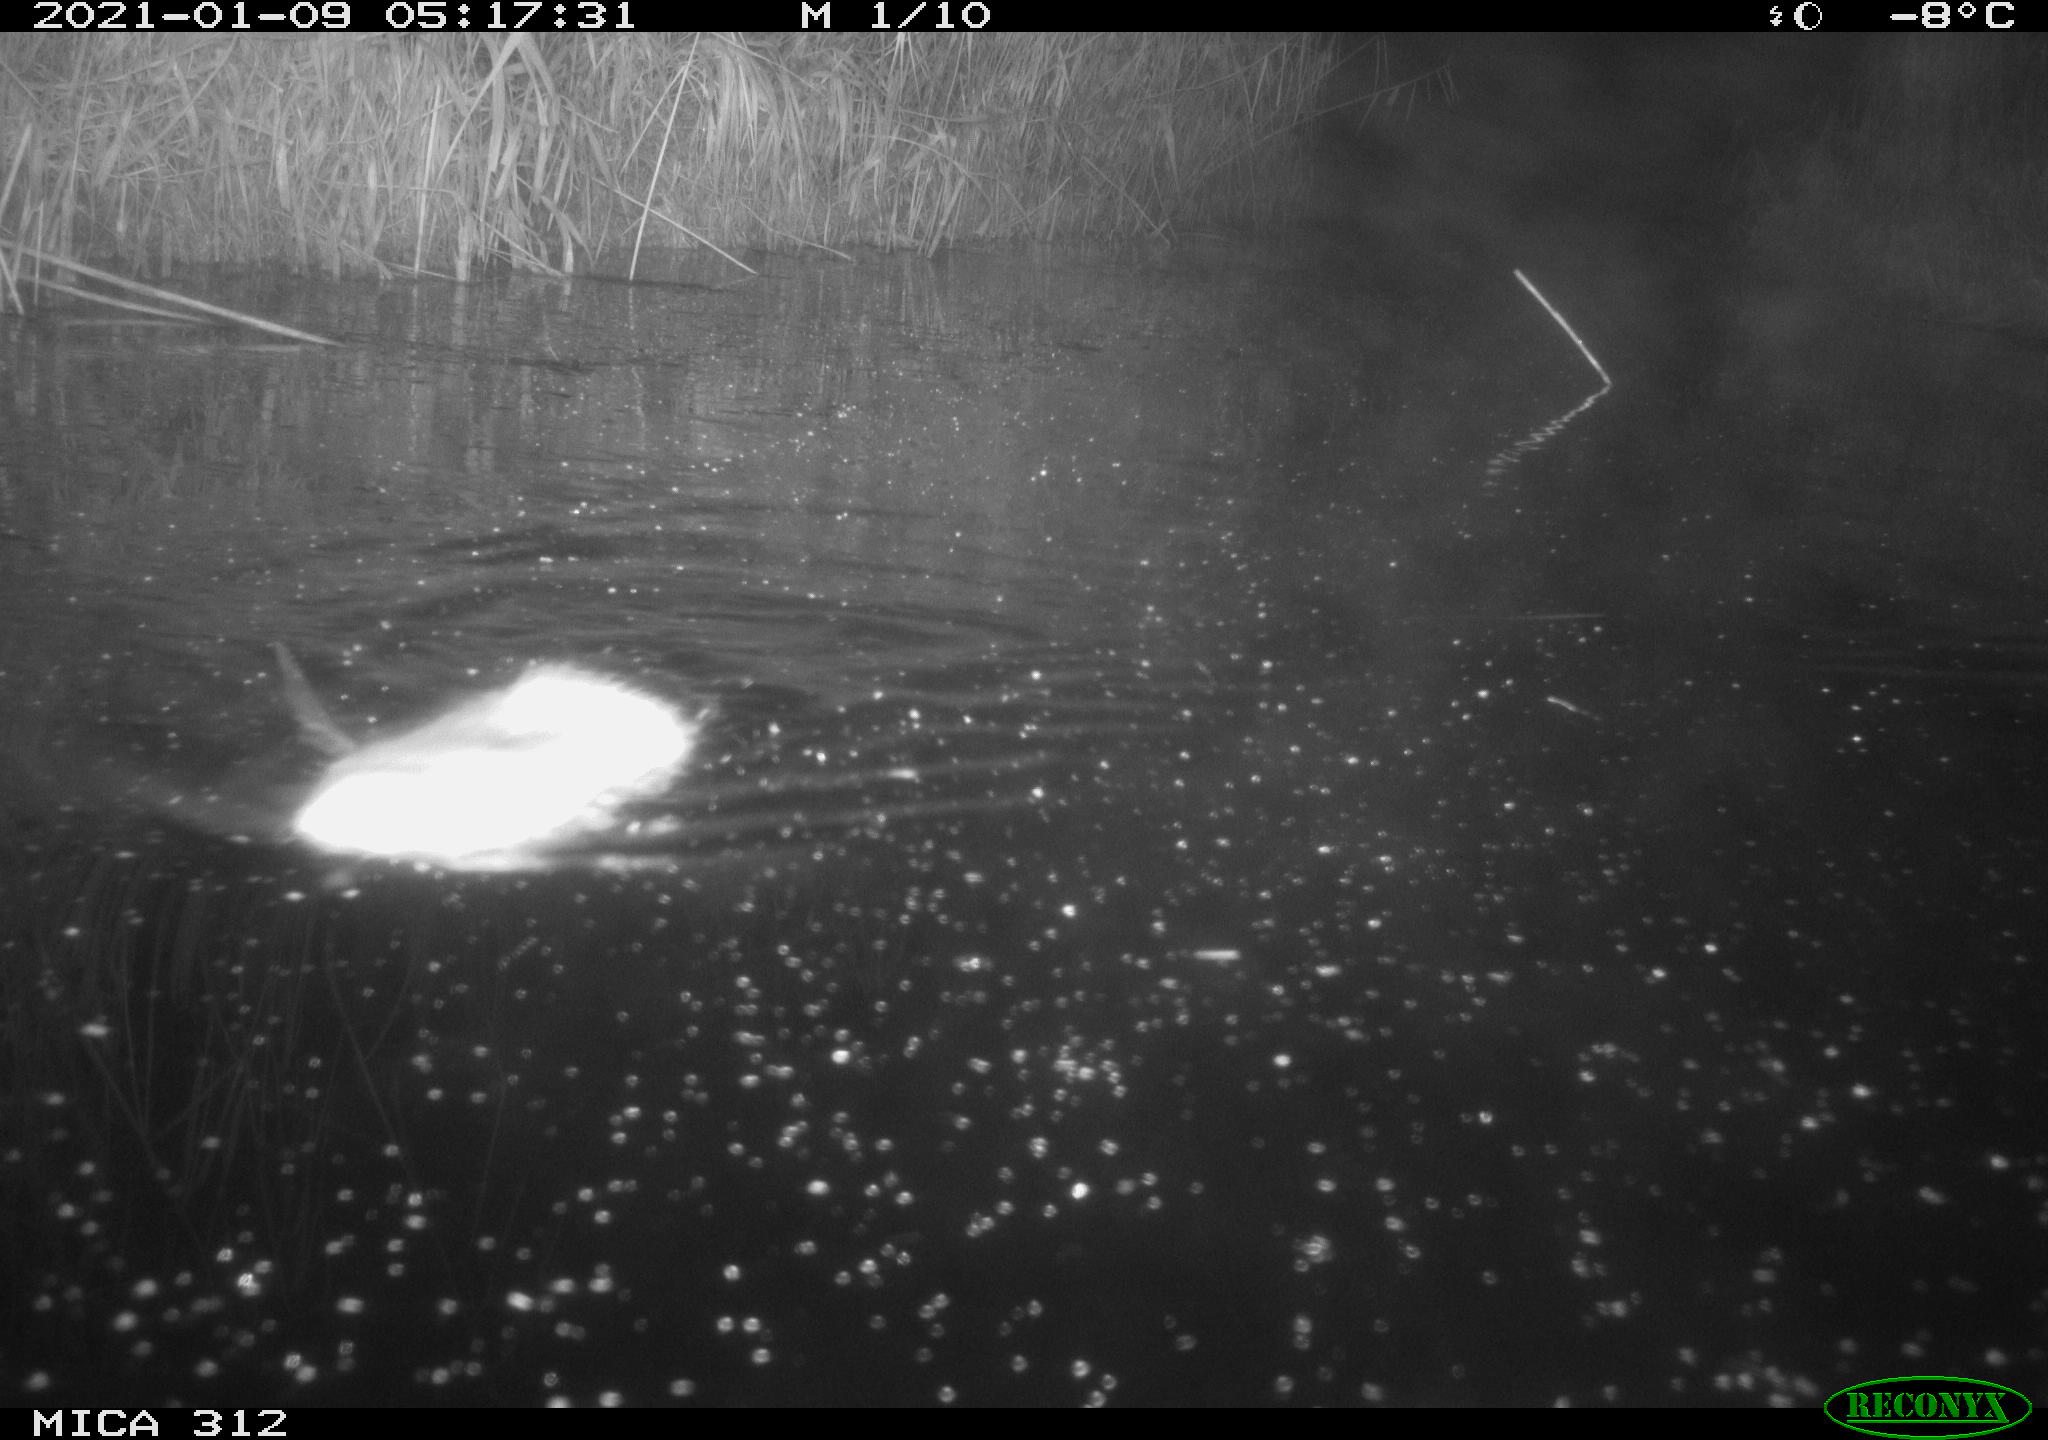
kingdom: Animalia
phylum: Chordata
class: Mammalia
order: Rodentia
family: Muridae
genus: Rattus
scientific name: Rattus norvegicus
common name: Brown rat
